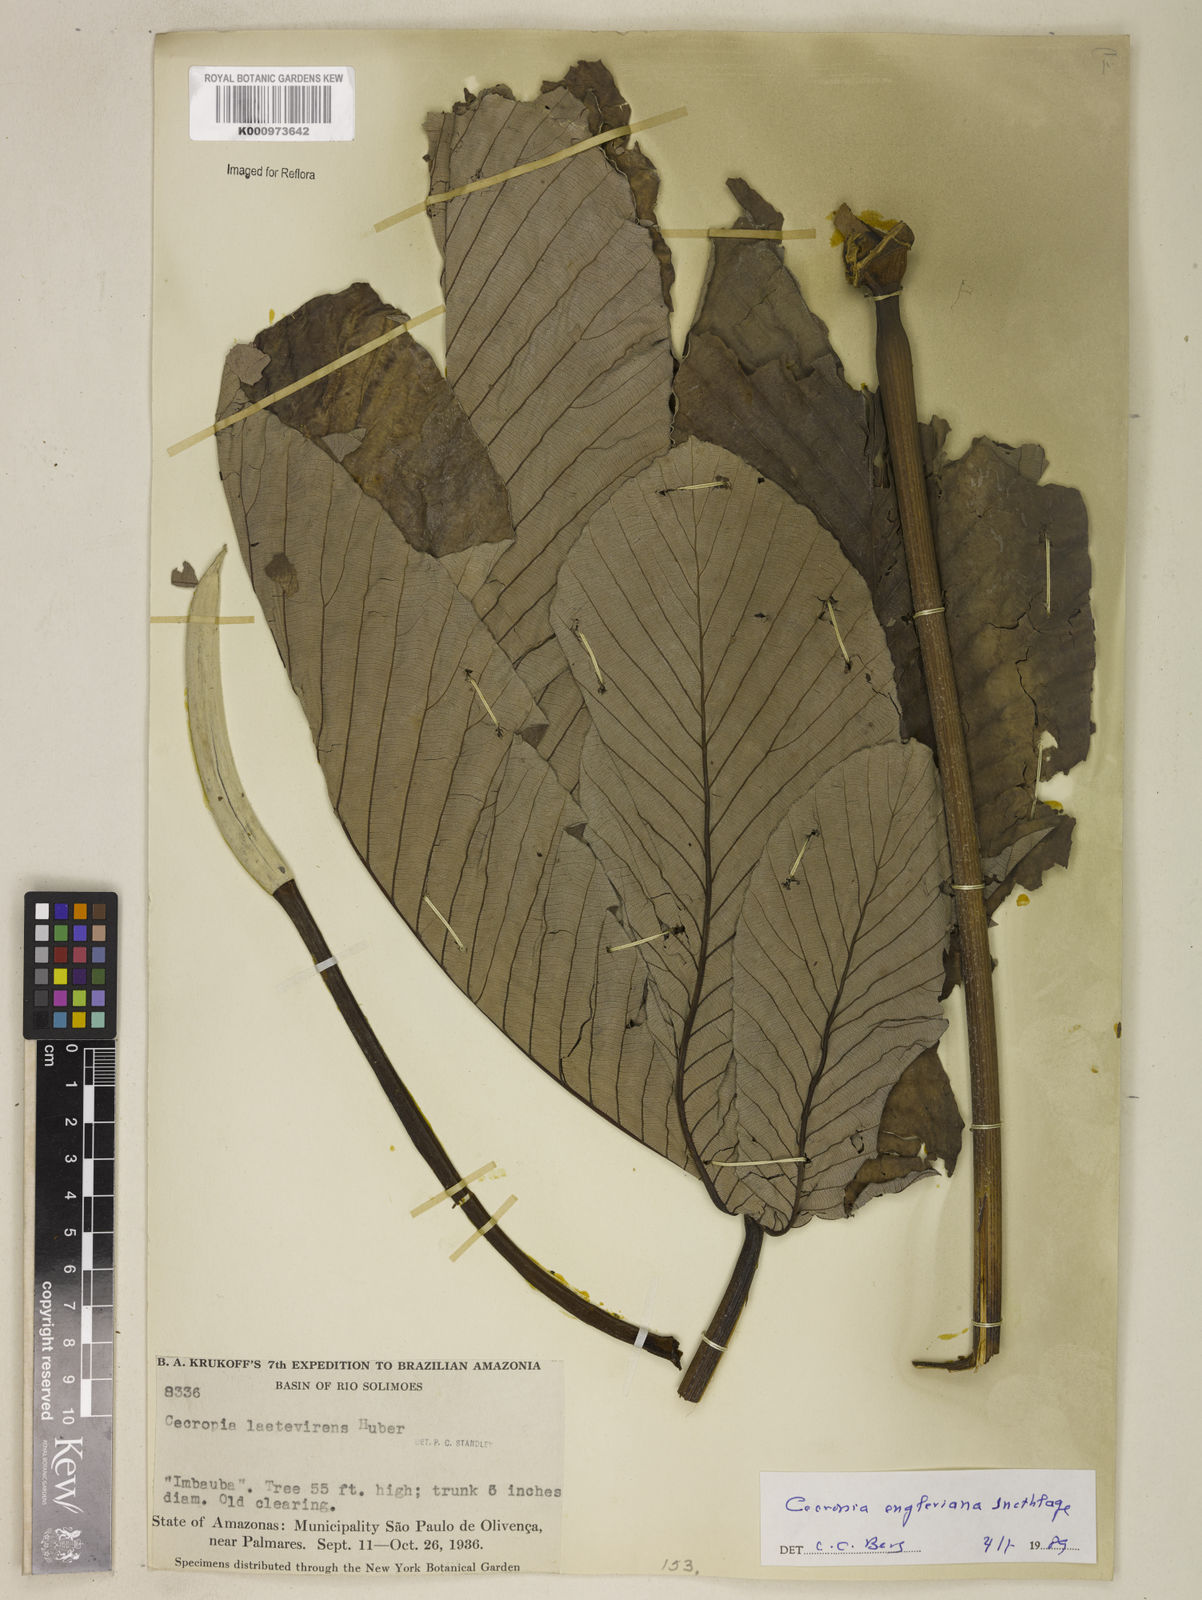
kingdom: Plantae
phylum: Tracheophyta
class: Magnoliopsida
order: Rosales
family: Urticaceae
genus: Cecropia
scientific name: Cecropia engleriana
